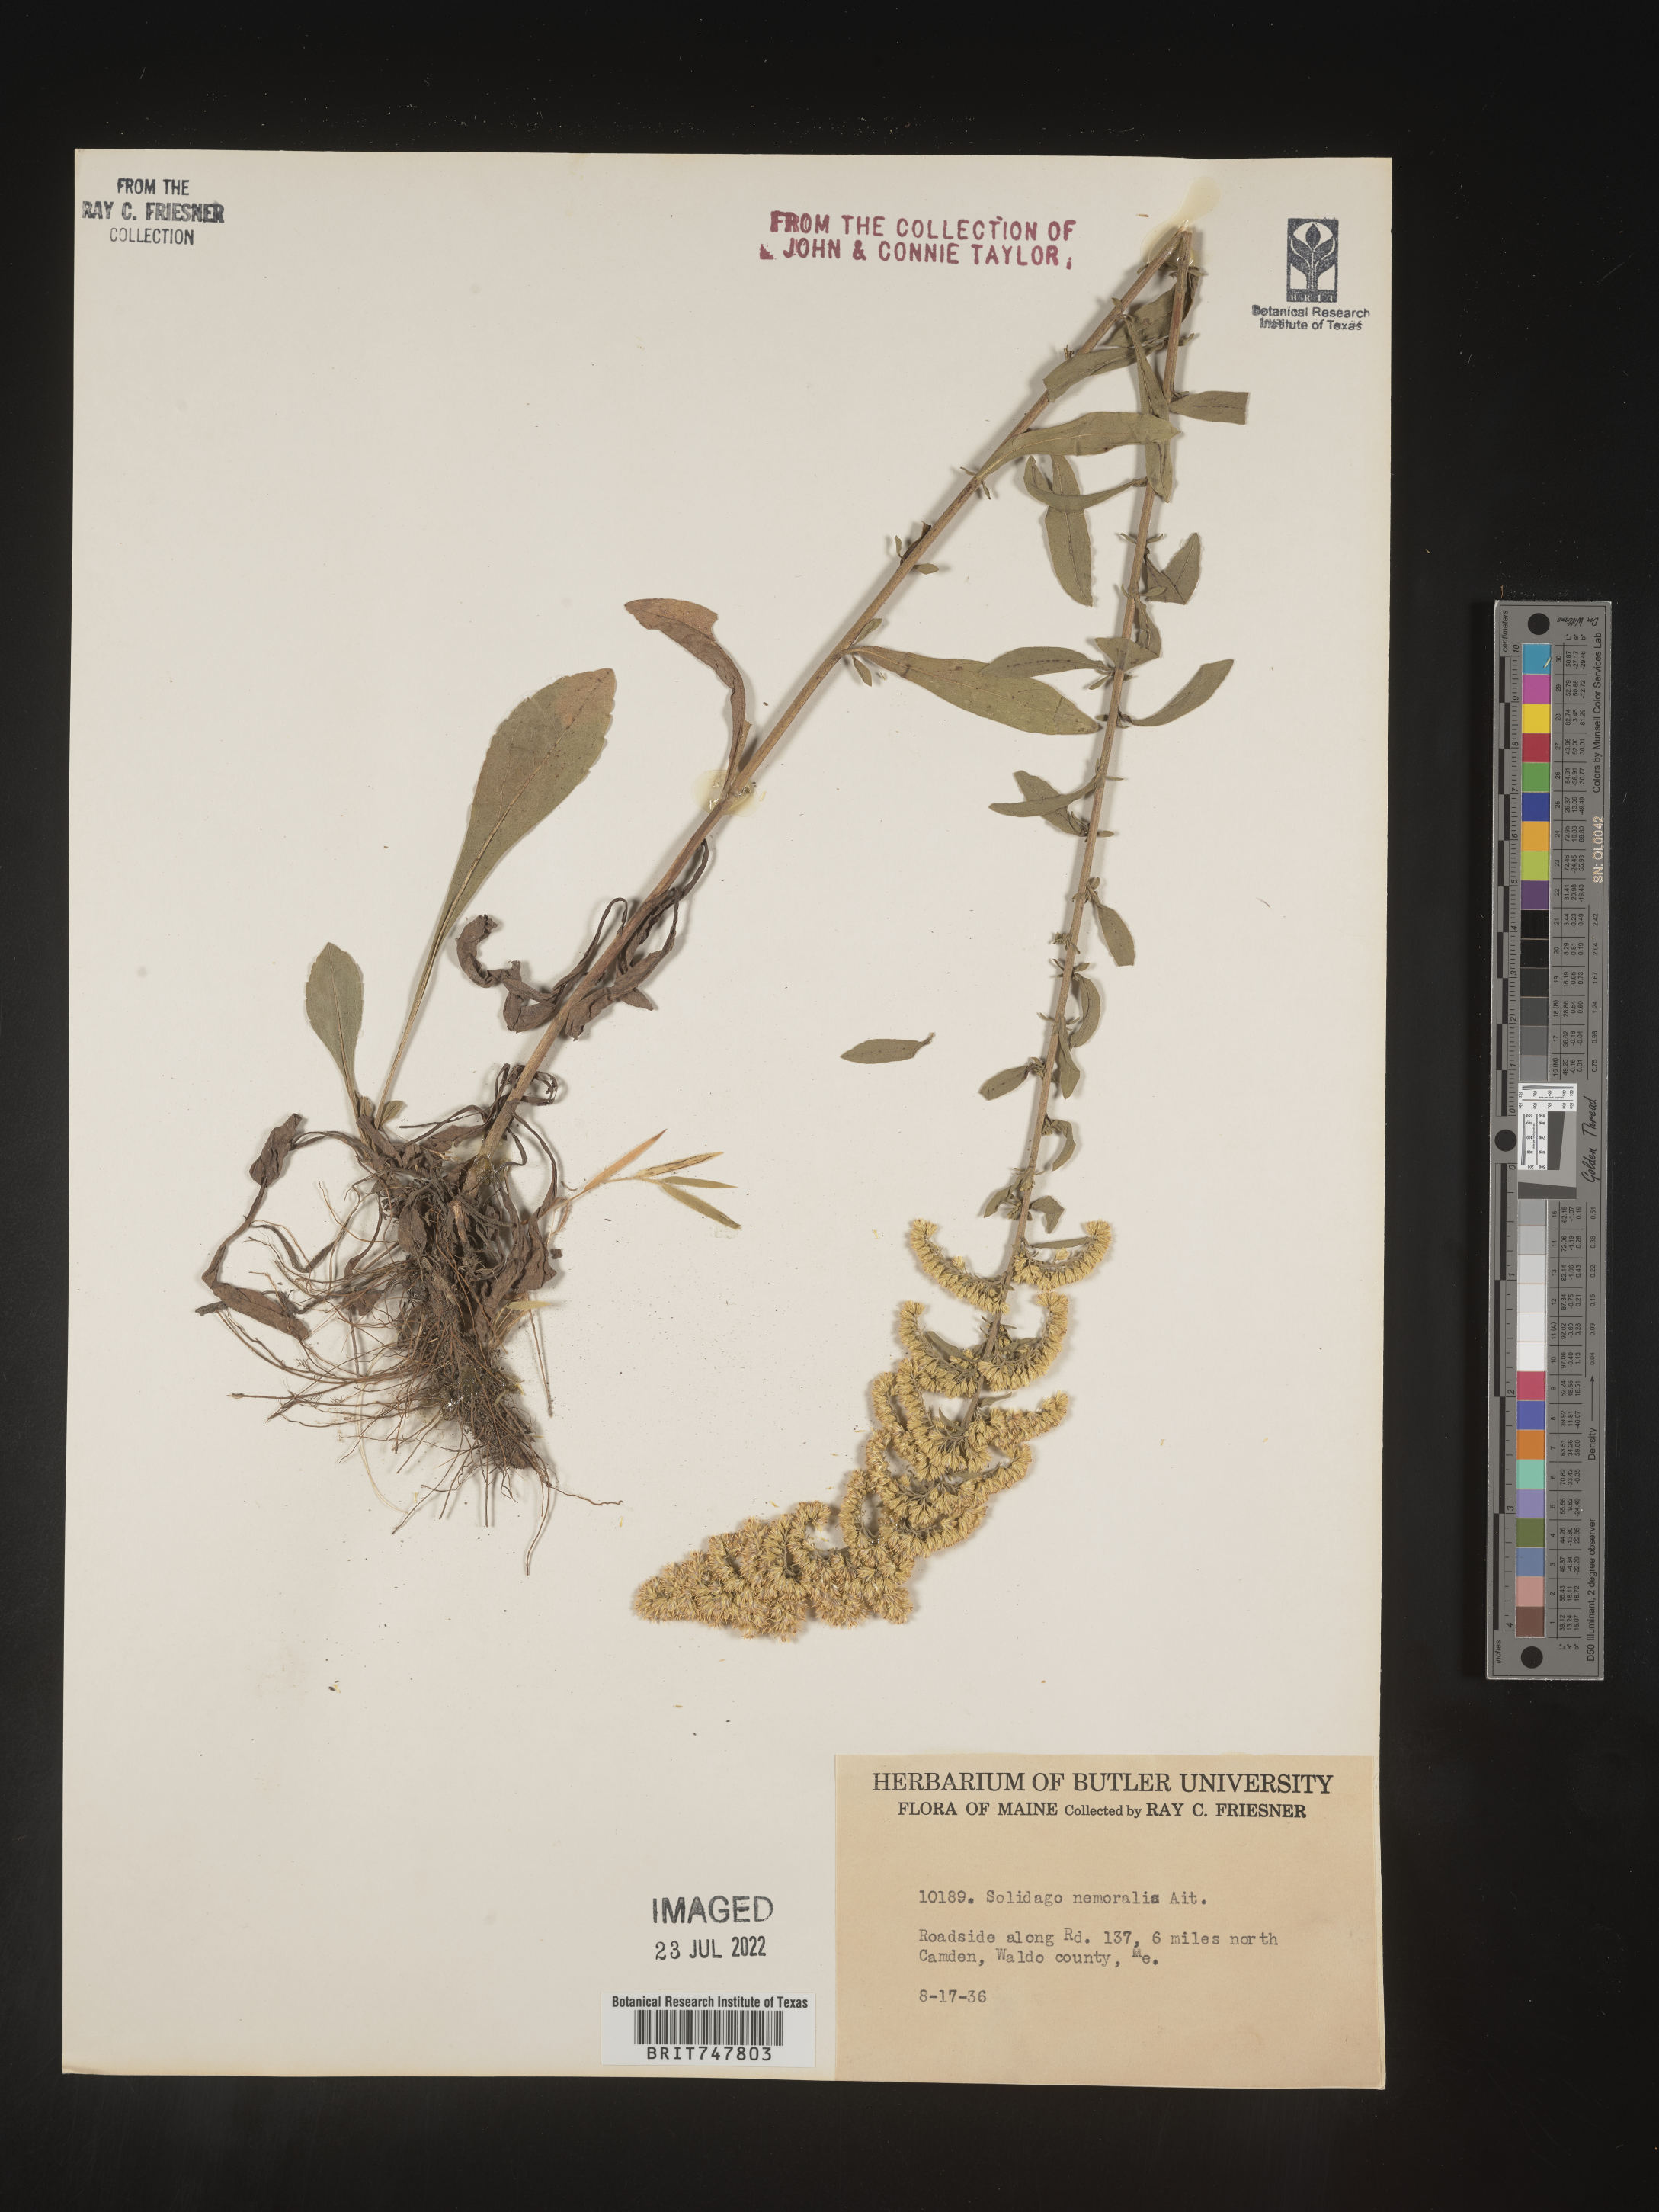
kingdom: Plantae
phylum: Tracheophyta
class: Magnoliopsida
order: Asterales
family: Asteraceae
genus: Solidago
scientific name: Solidago nemoralis
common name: Grey goldenrod
